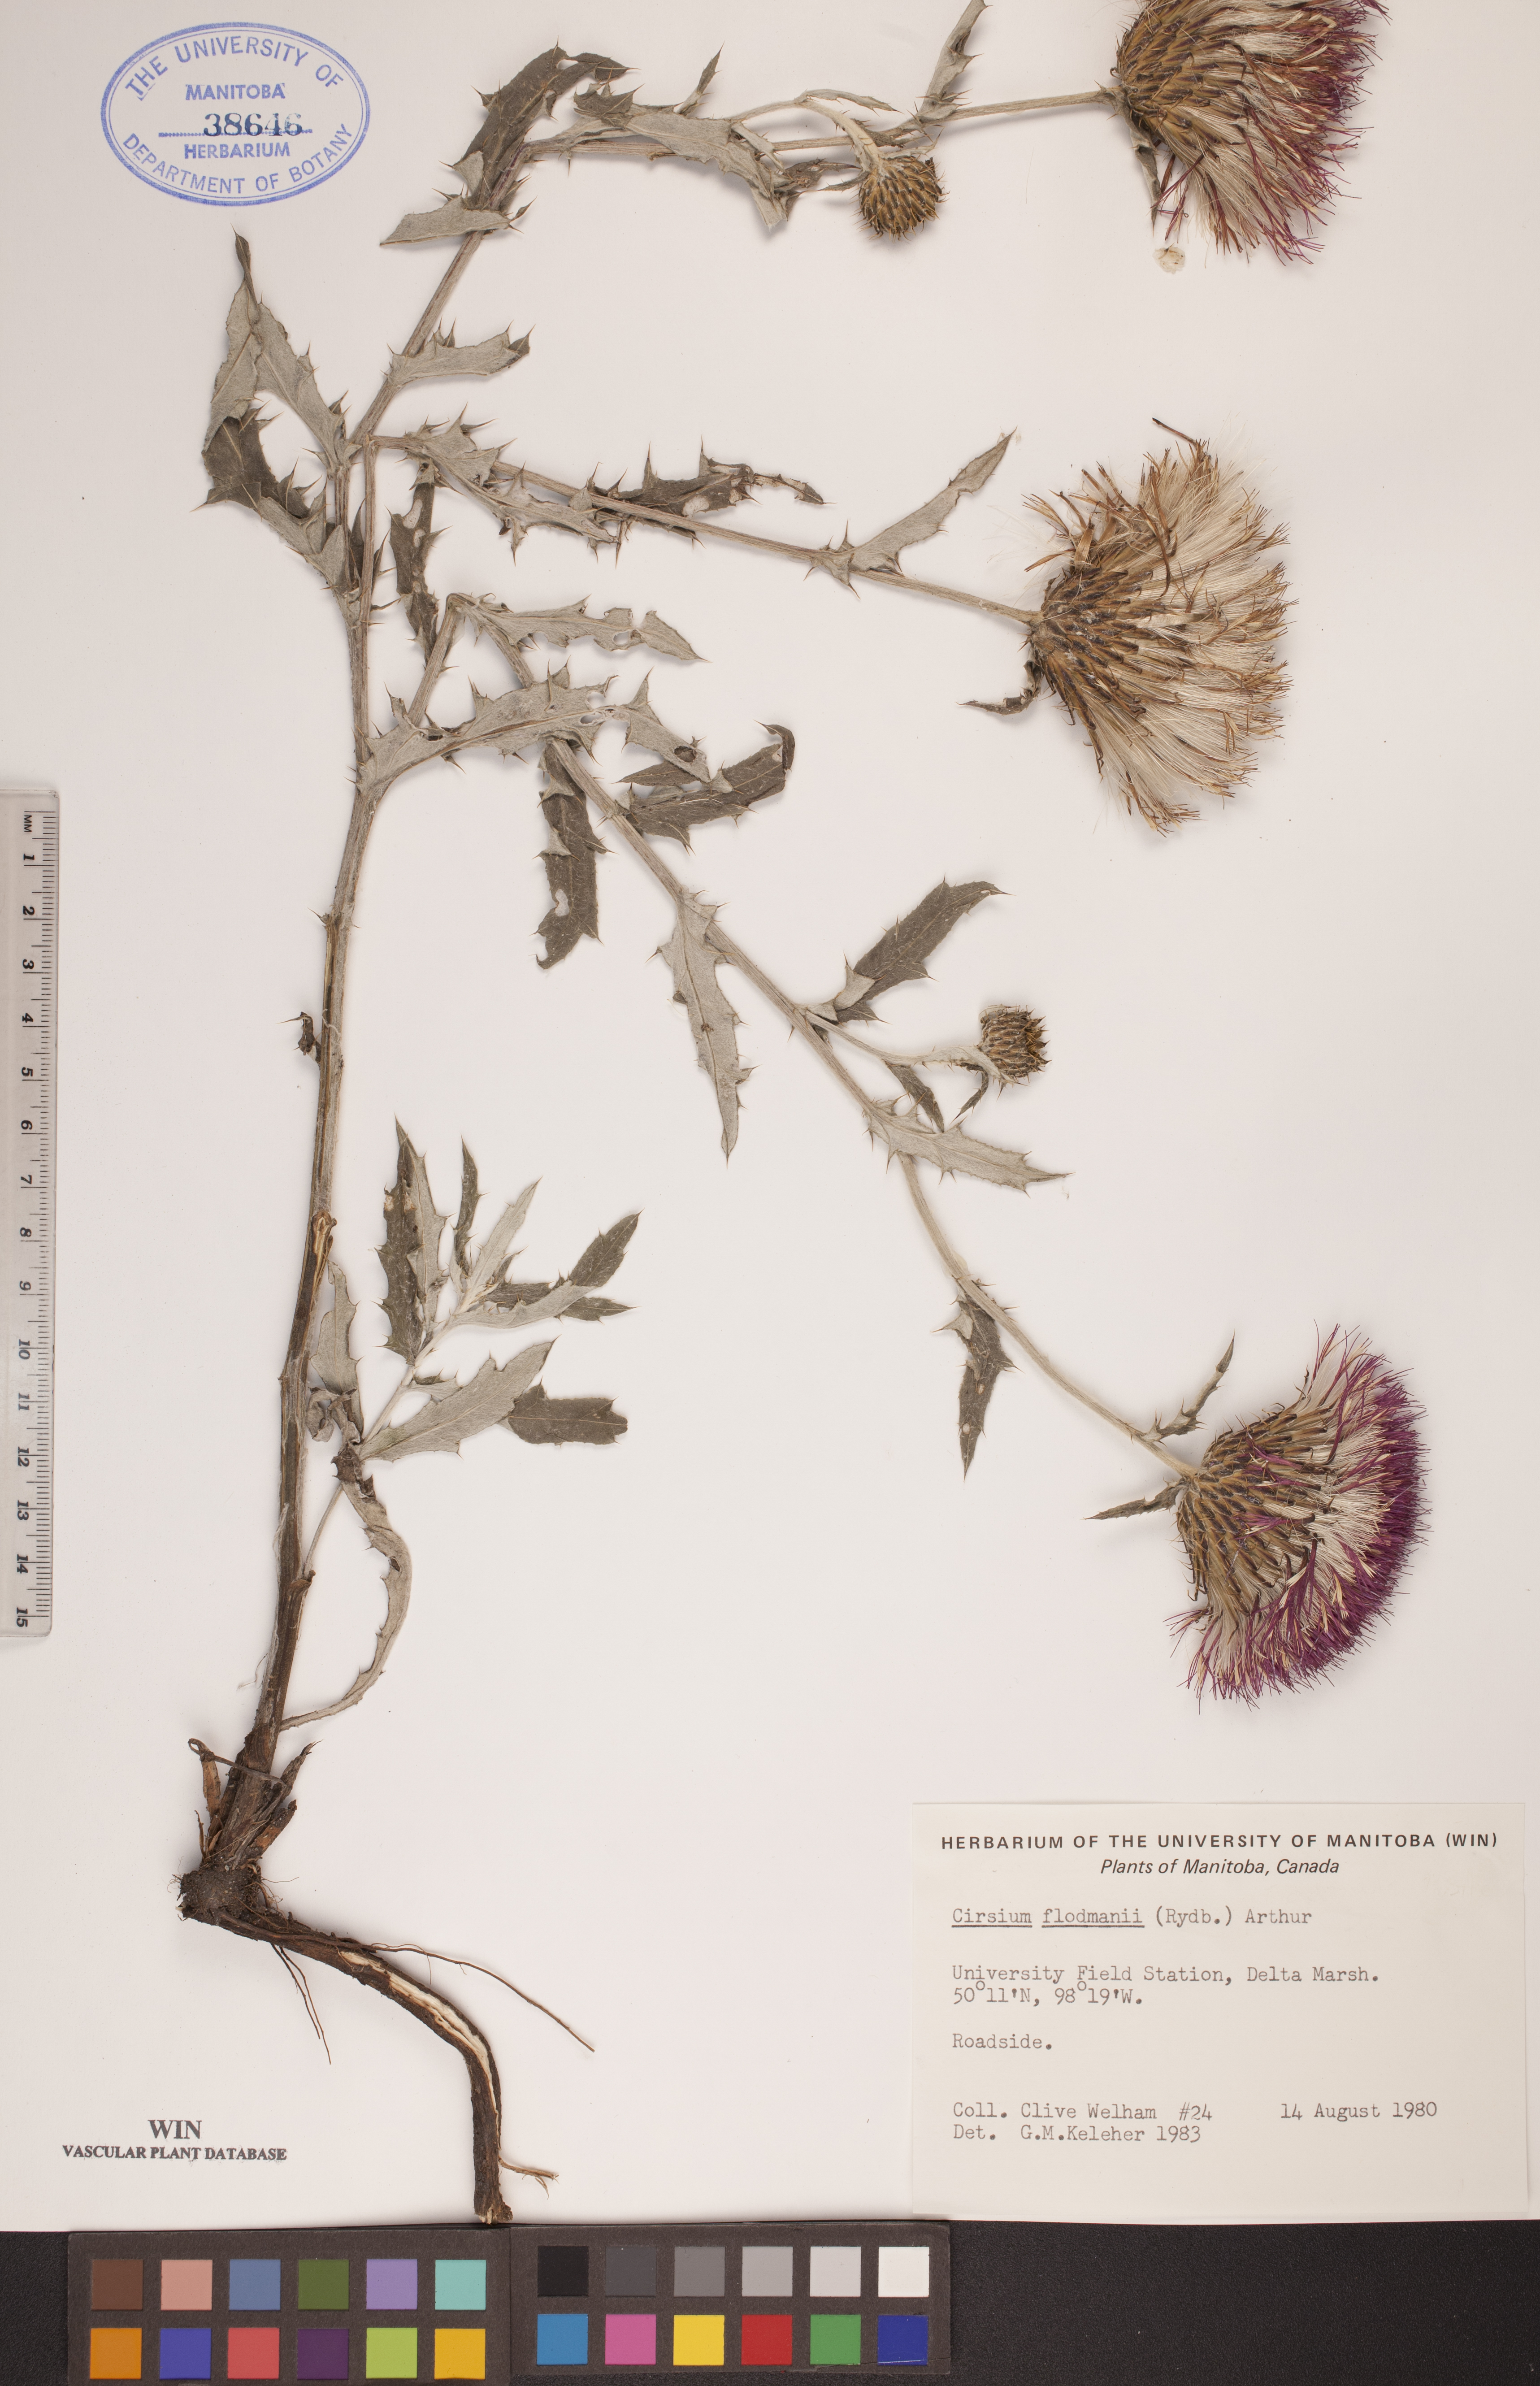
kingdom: Plantae
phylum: Tracheophyta
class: Magnoliopsida
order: Asterales
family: Asteraceae
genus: Cirsium
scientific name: Cirsium flodmanii
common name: Flodman's thistle
